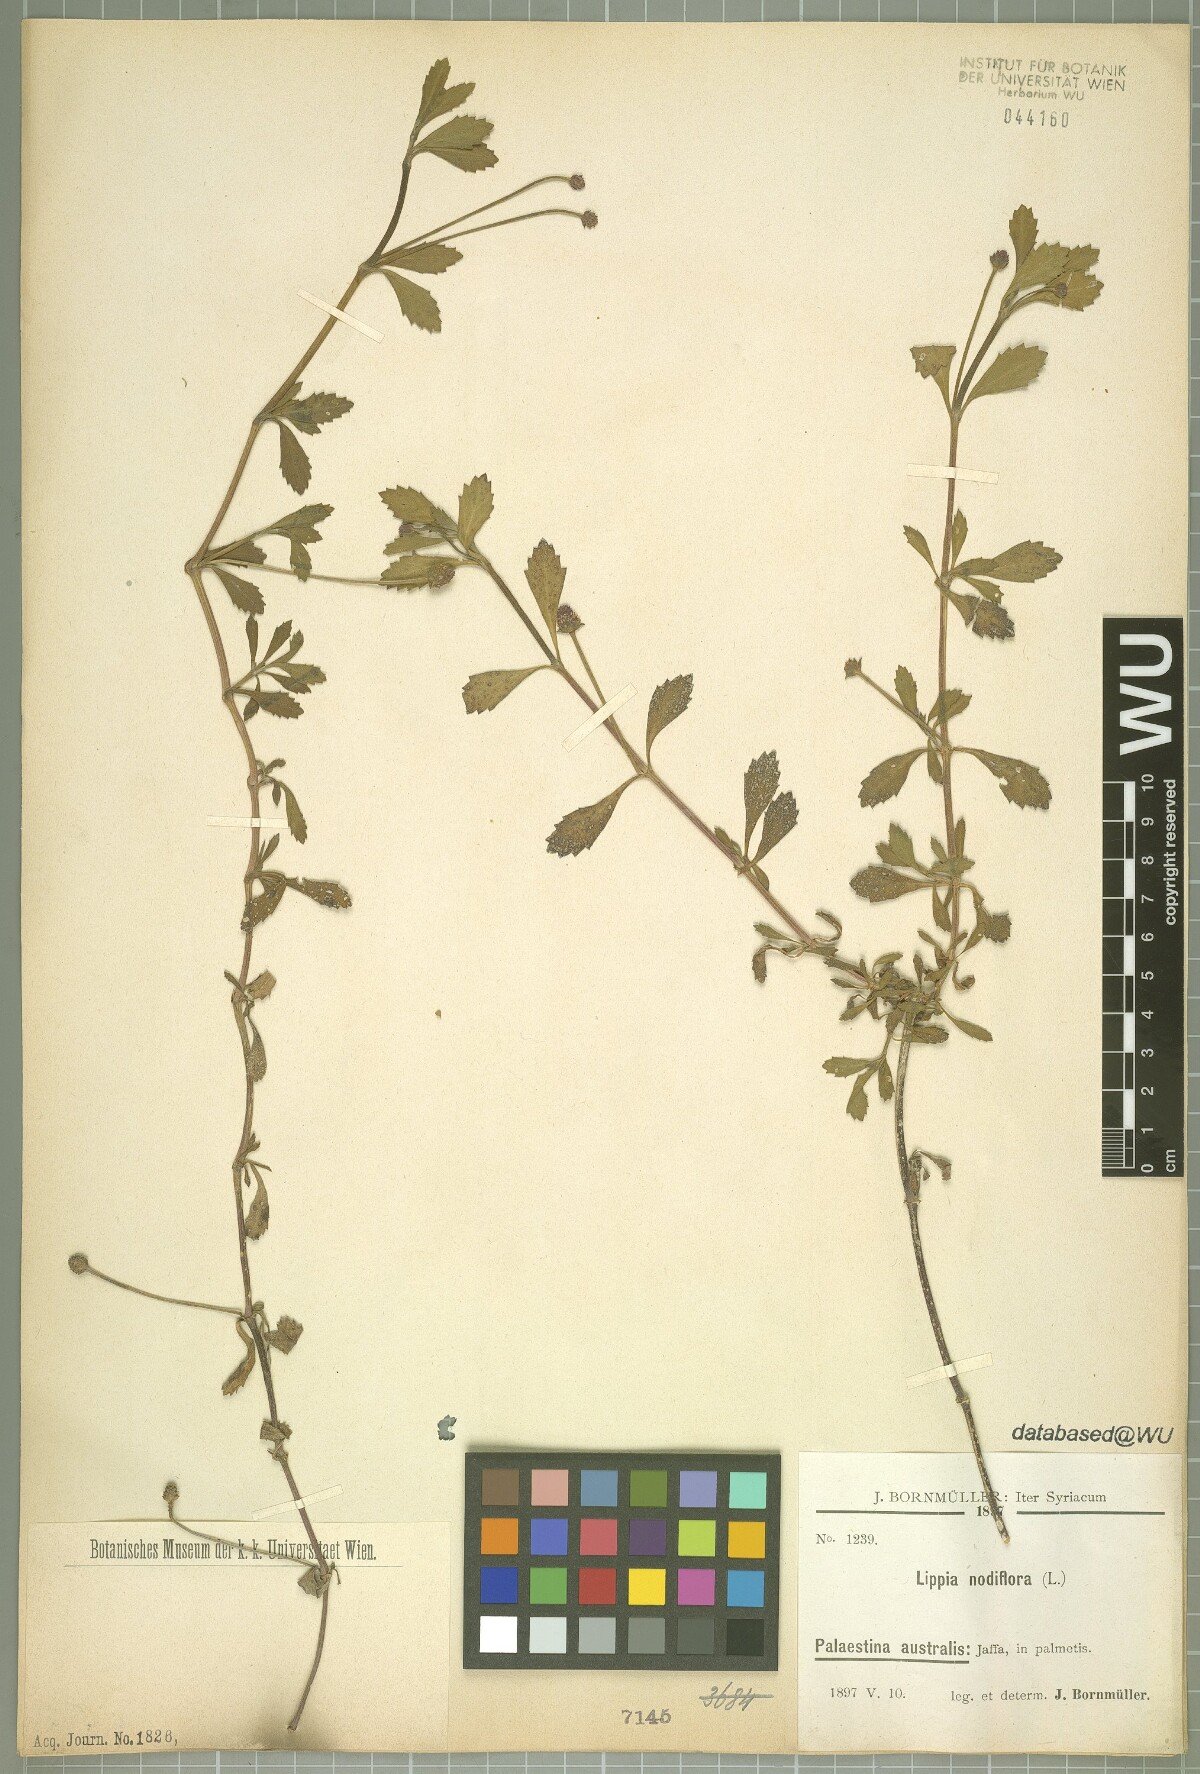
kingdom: Plantae
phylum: Tracheophyta
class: Magnoliopsida
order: Lamiales
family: Verbenaceae
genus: Phyla
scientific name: Phyla nodiflora
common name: Frogfruit
